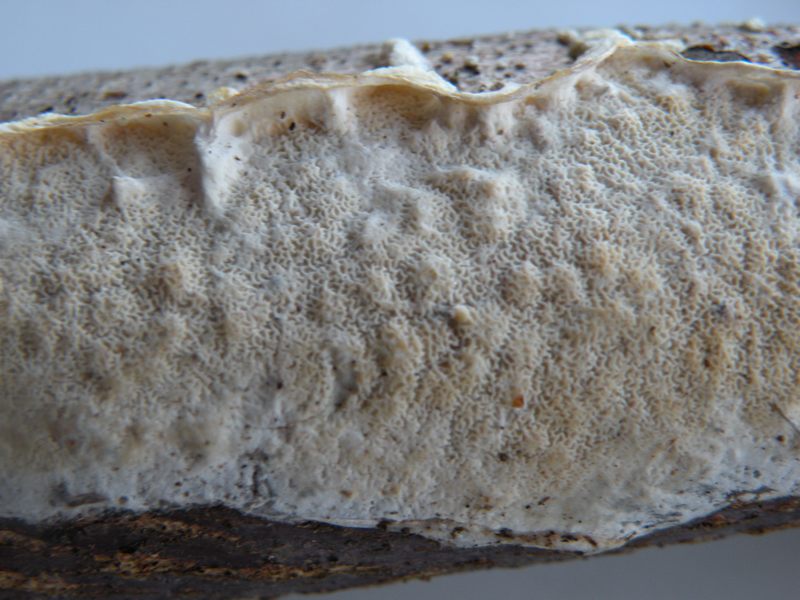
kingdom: Fungi
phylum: Basidiomycota
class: Agaricomycetes
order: Polyporales
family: Irpicaceae
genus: Byssomerulius
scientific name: Byssomerulius corium
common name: læder-åresvamp
